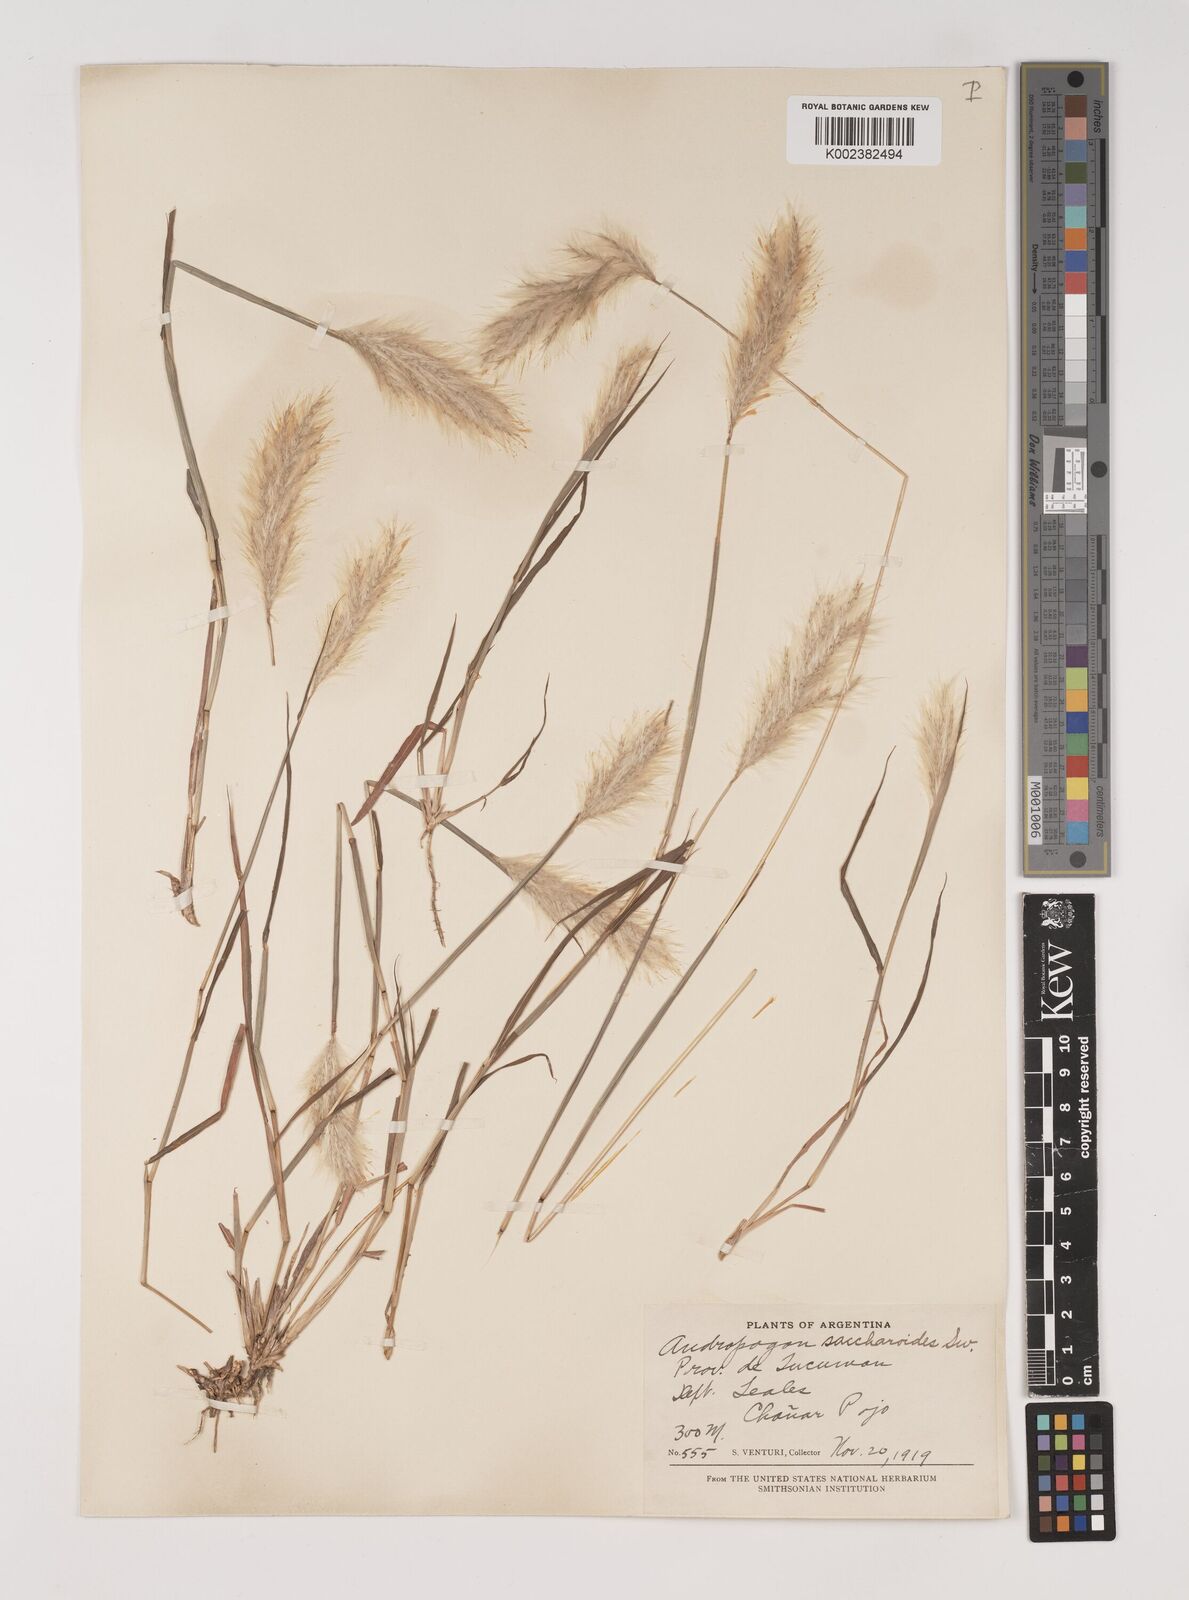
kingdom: Plantae
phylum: Tracheophyta
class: Liliopsida
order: Poales
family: Poaceae
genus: Bothriochloa
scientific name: Bothriochloa laguroides
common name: Silver bluestem
